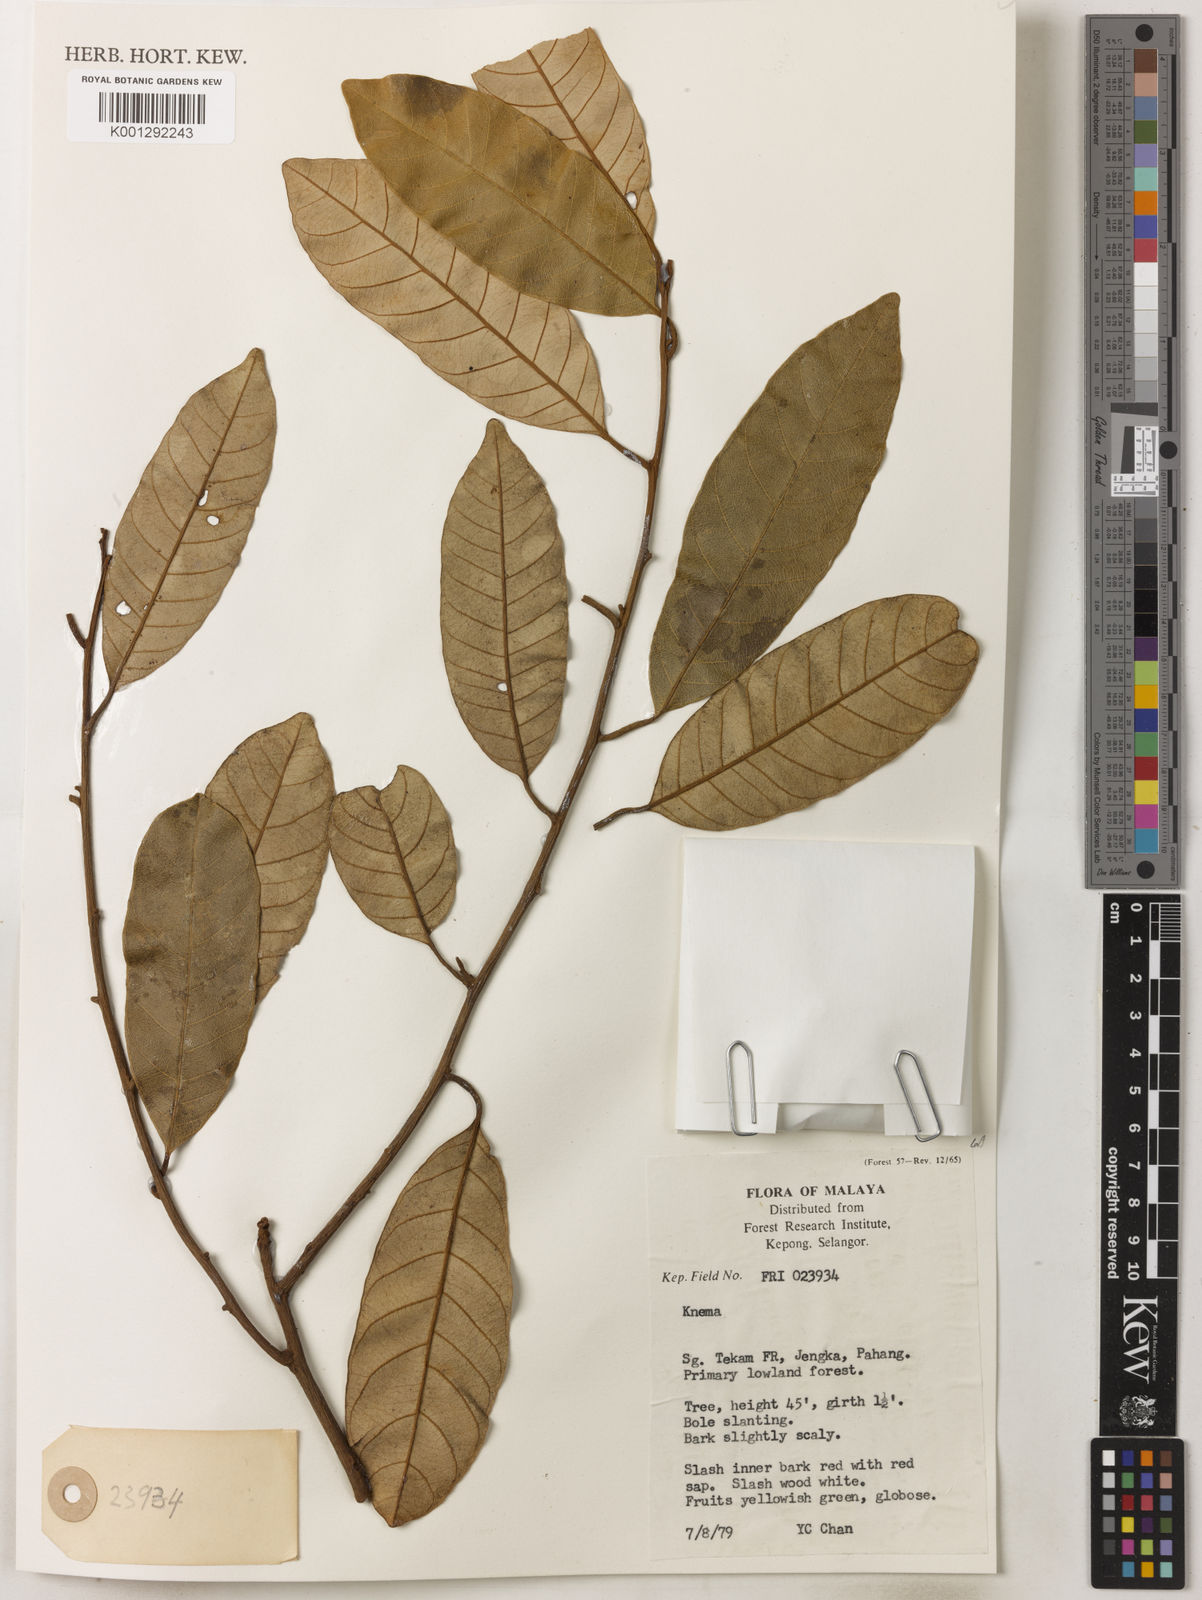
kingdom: Plantae
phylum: Tracheophyta
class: Magnoliopsida
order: Magnoliales
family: Myristicaceae
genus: Knema
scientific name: Knema
